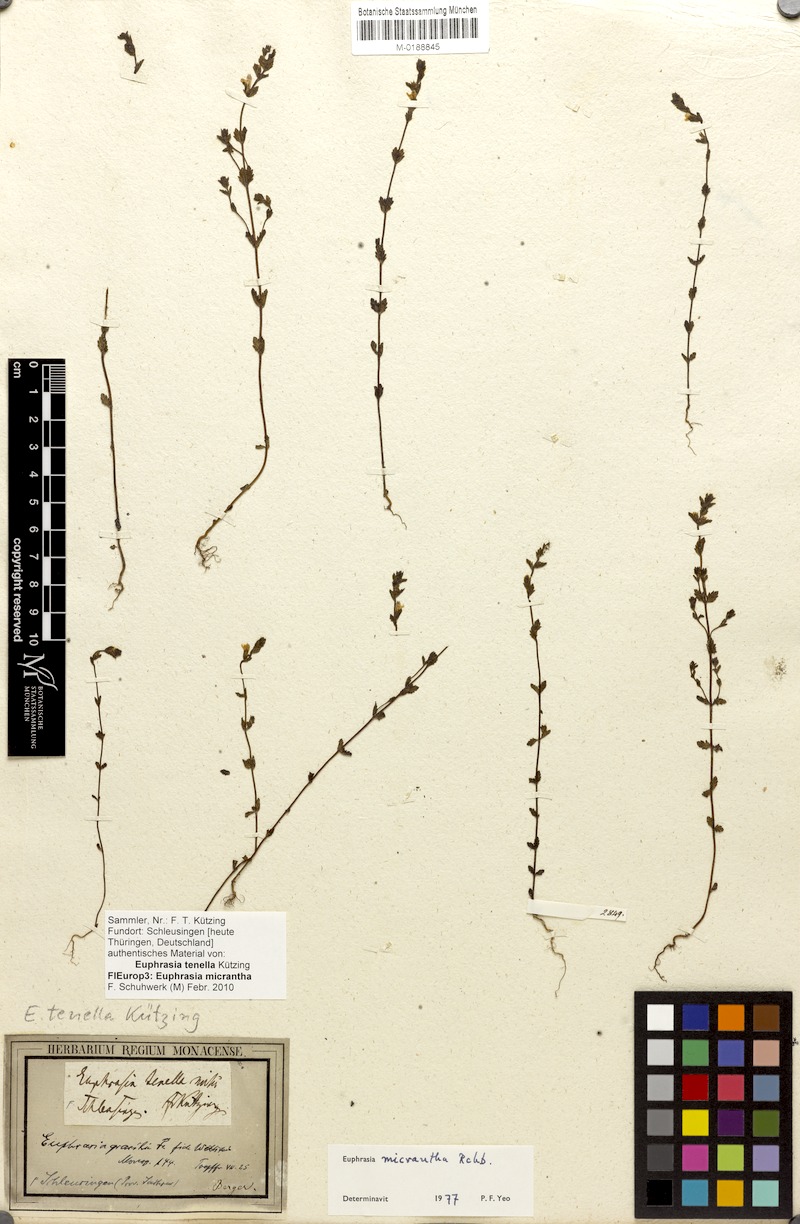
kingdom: Plantae
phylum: Tracheophyta
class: Magnoliopsida
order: Lamiales
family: Orobanchaceae
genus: Euphrasia
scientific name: Euphrasia micrantha
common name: Northern eyebright
